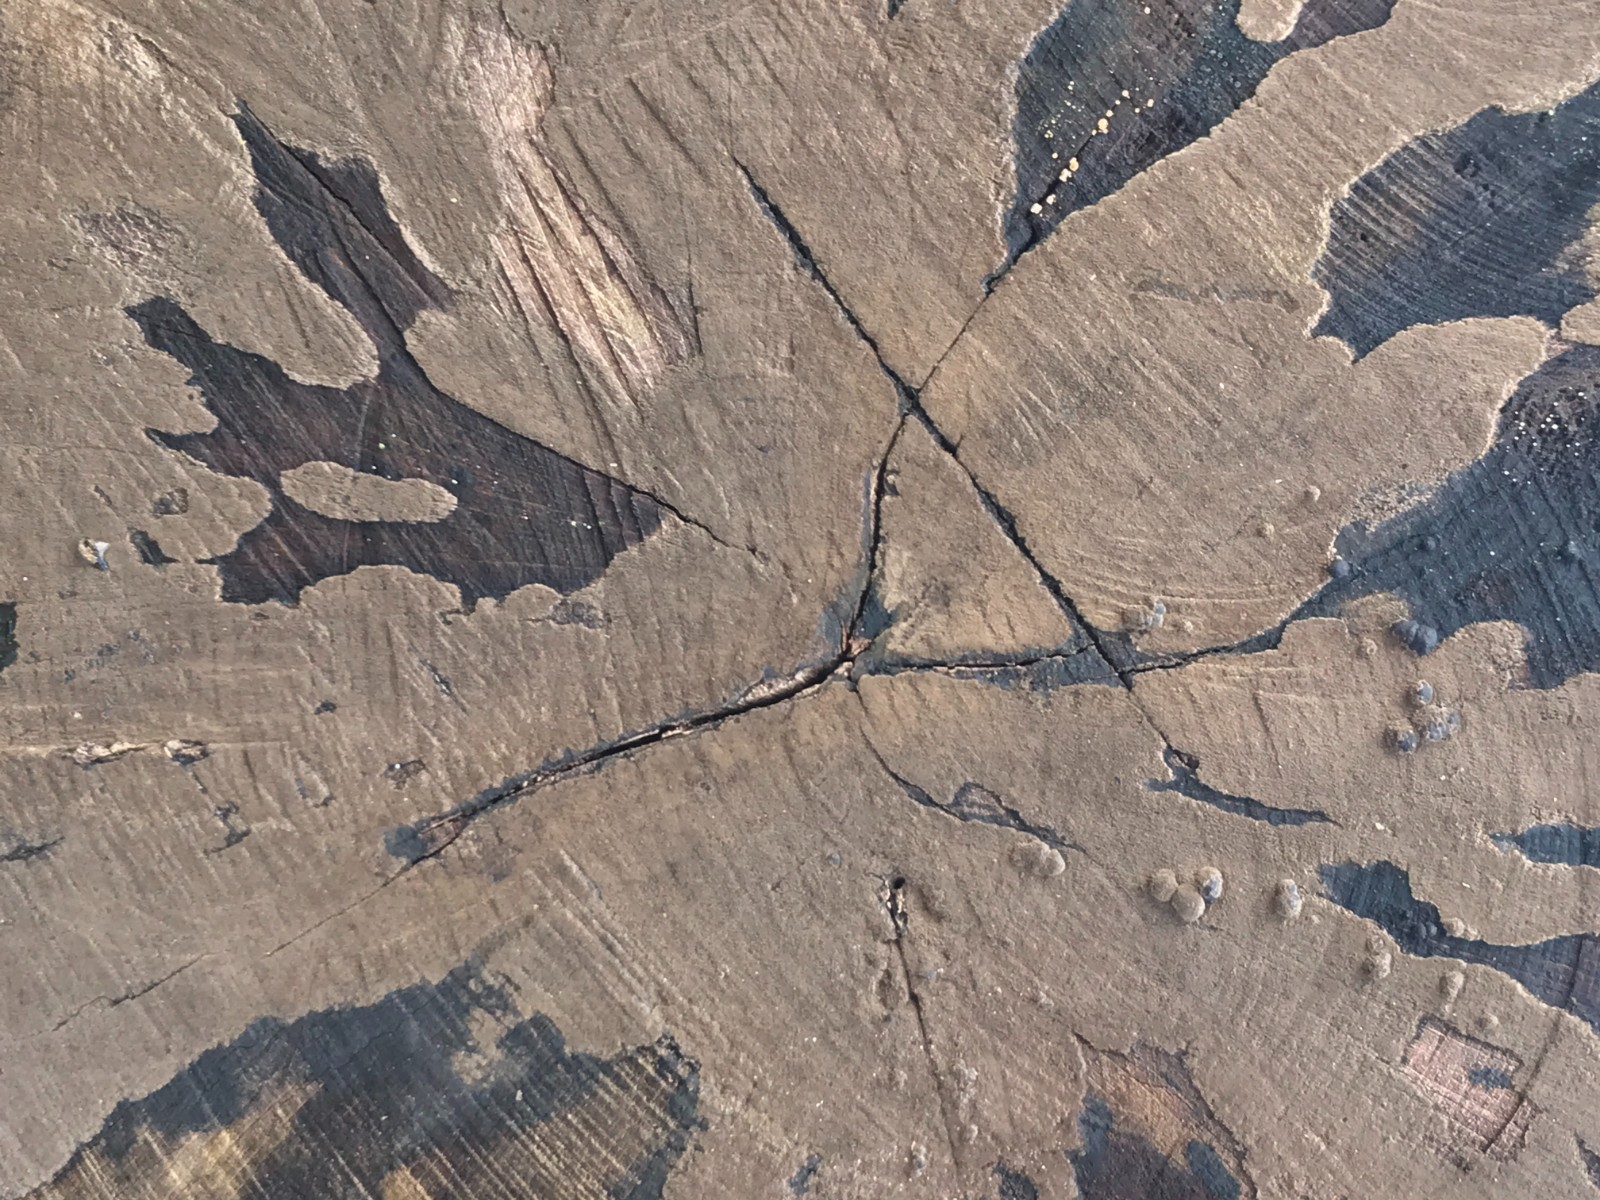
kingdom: Fungi
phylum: Ascomycota
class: Leotiomycetes
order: Helotiales
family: Helotiaceae
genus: Bispora
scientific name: Bispora pallescens
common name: måtte-snitskive
